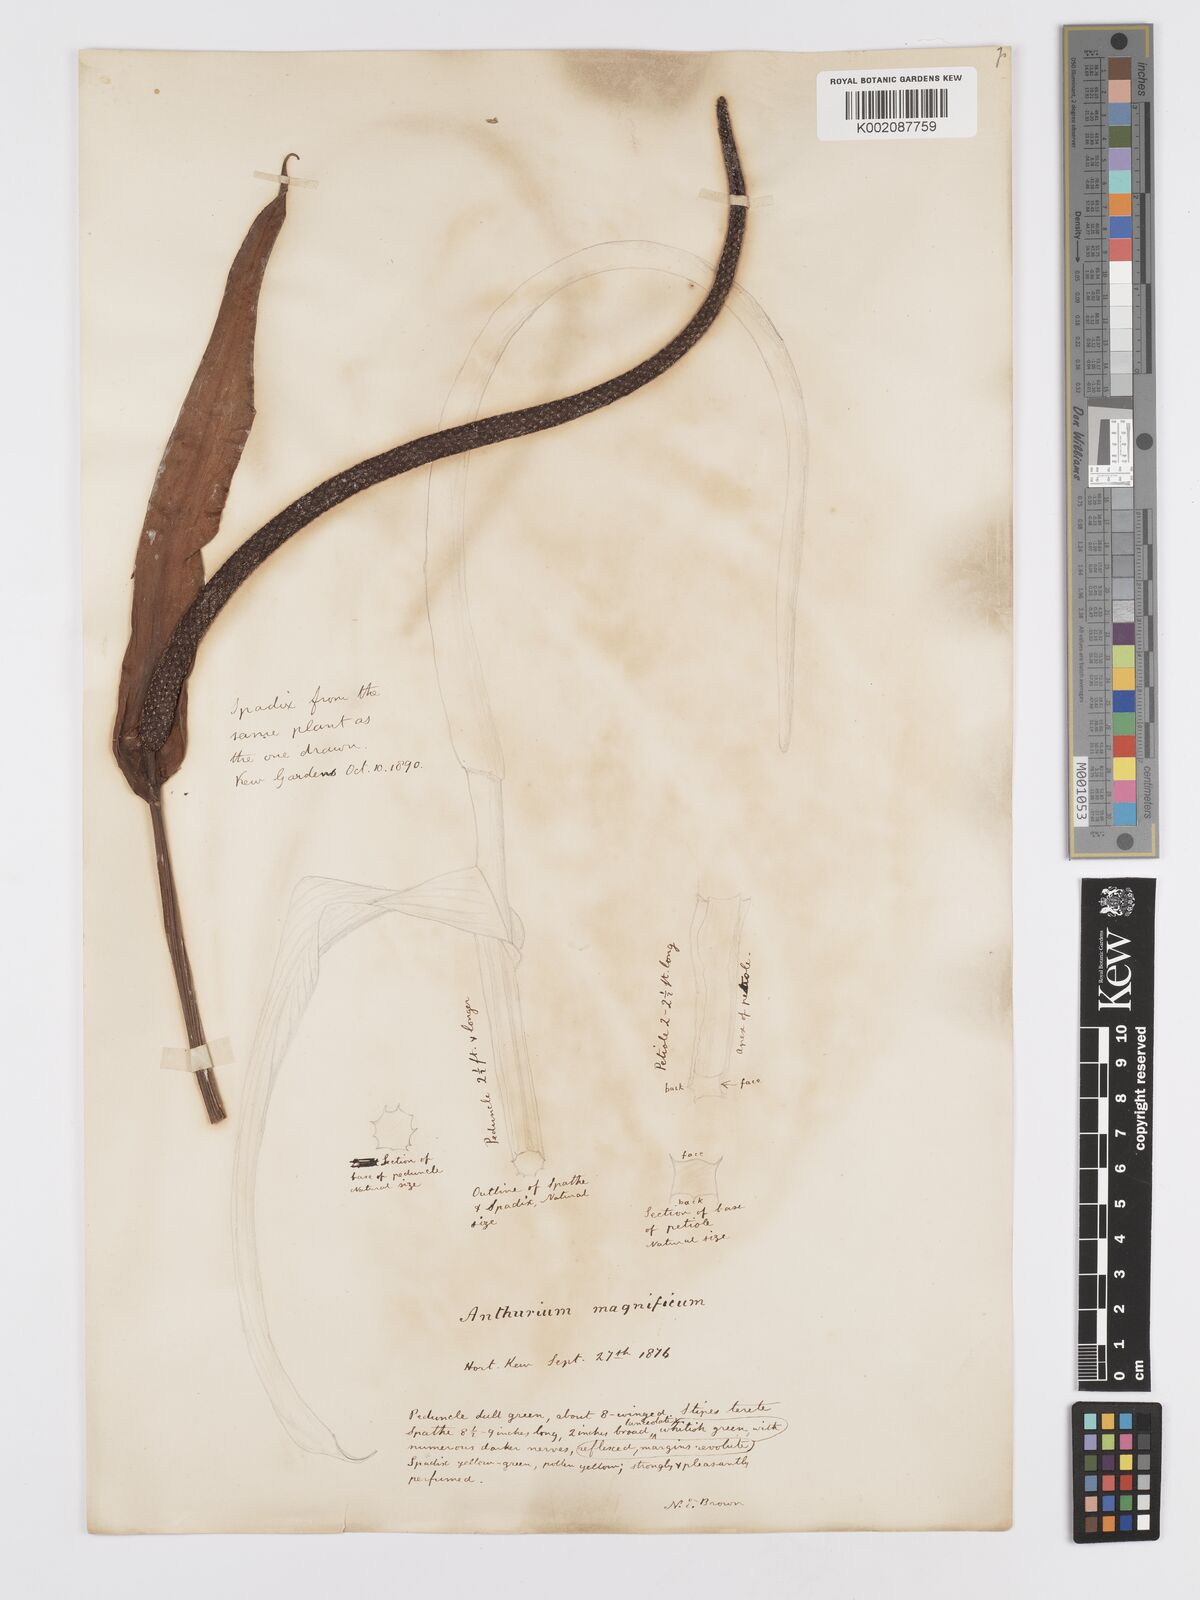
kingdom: Plantae
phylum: Tracheophyta
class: Liliopsida
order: Alismatales
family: Araceae
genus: Anthurium
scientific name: Anthurium magnificum
